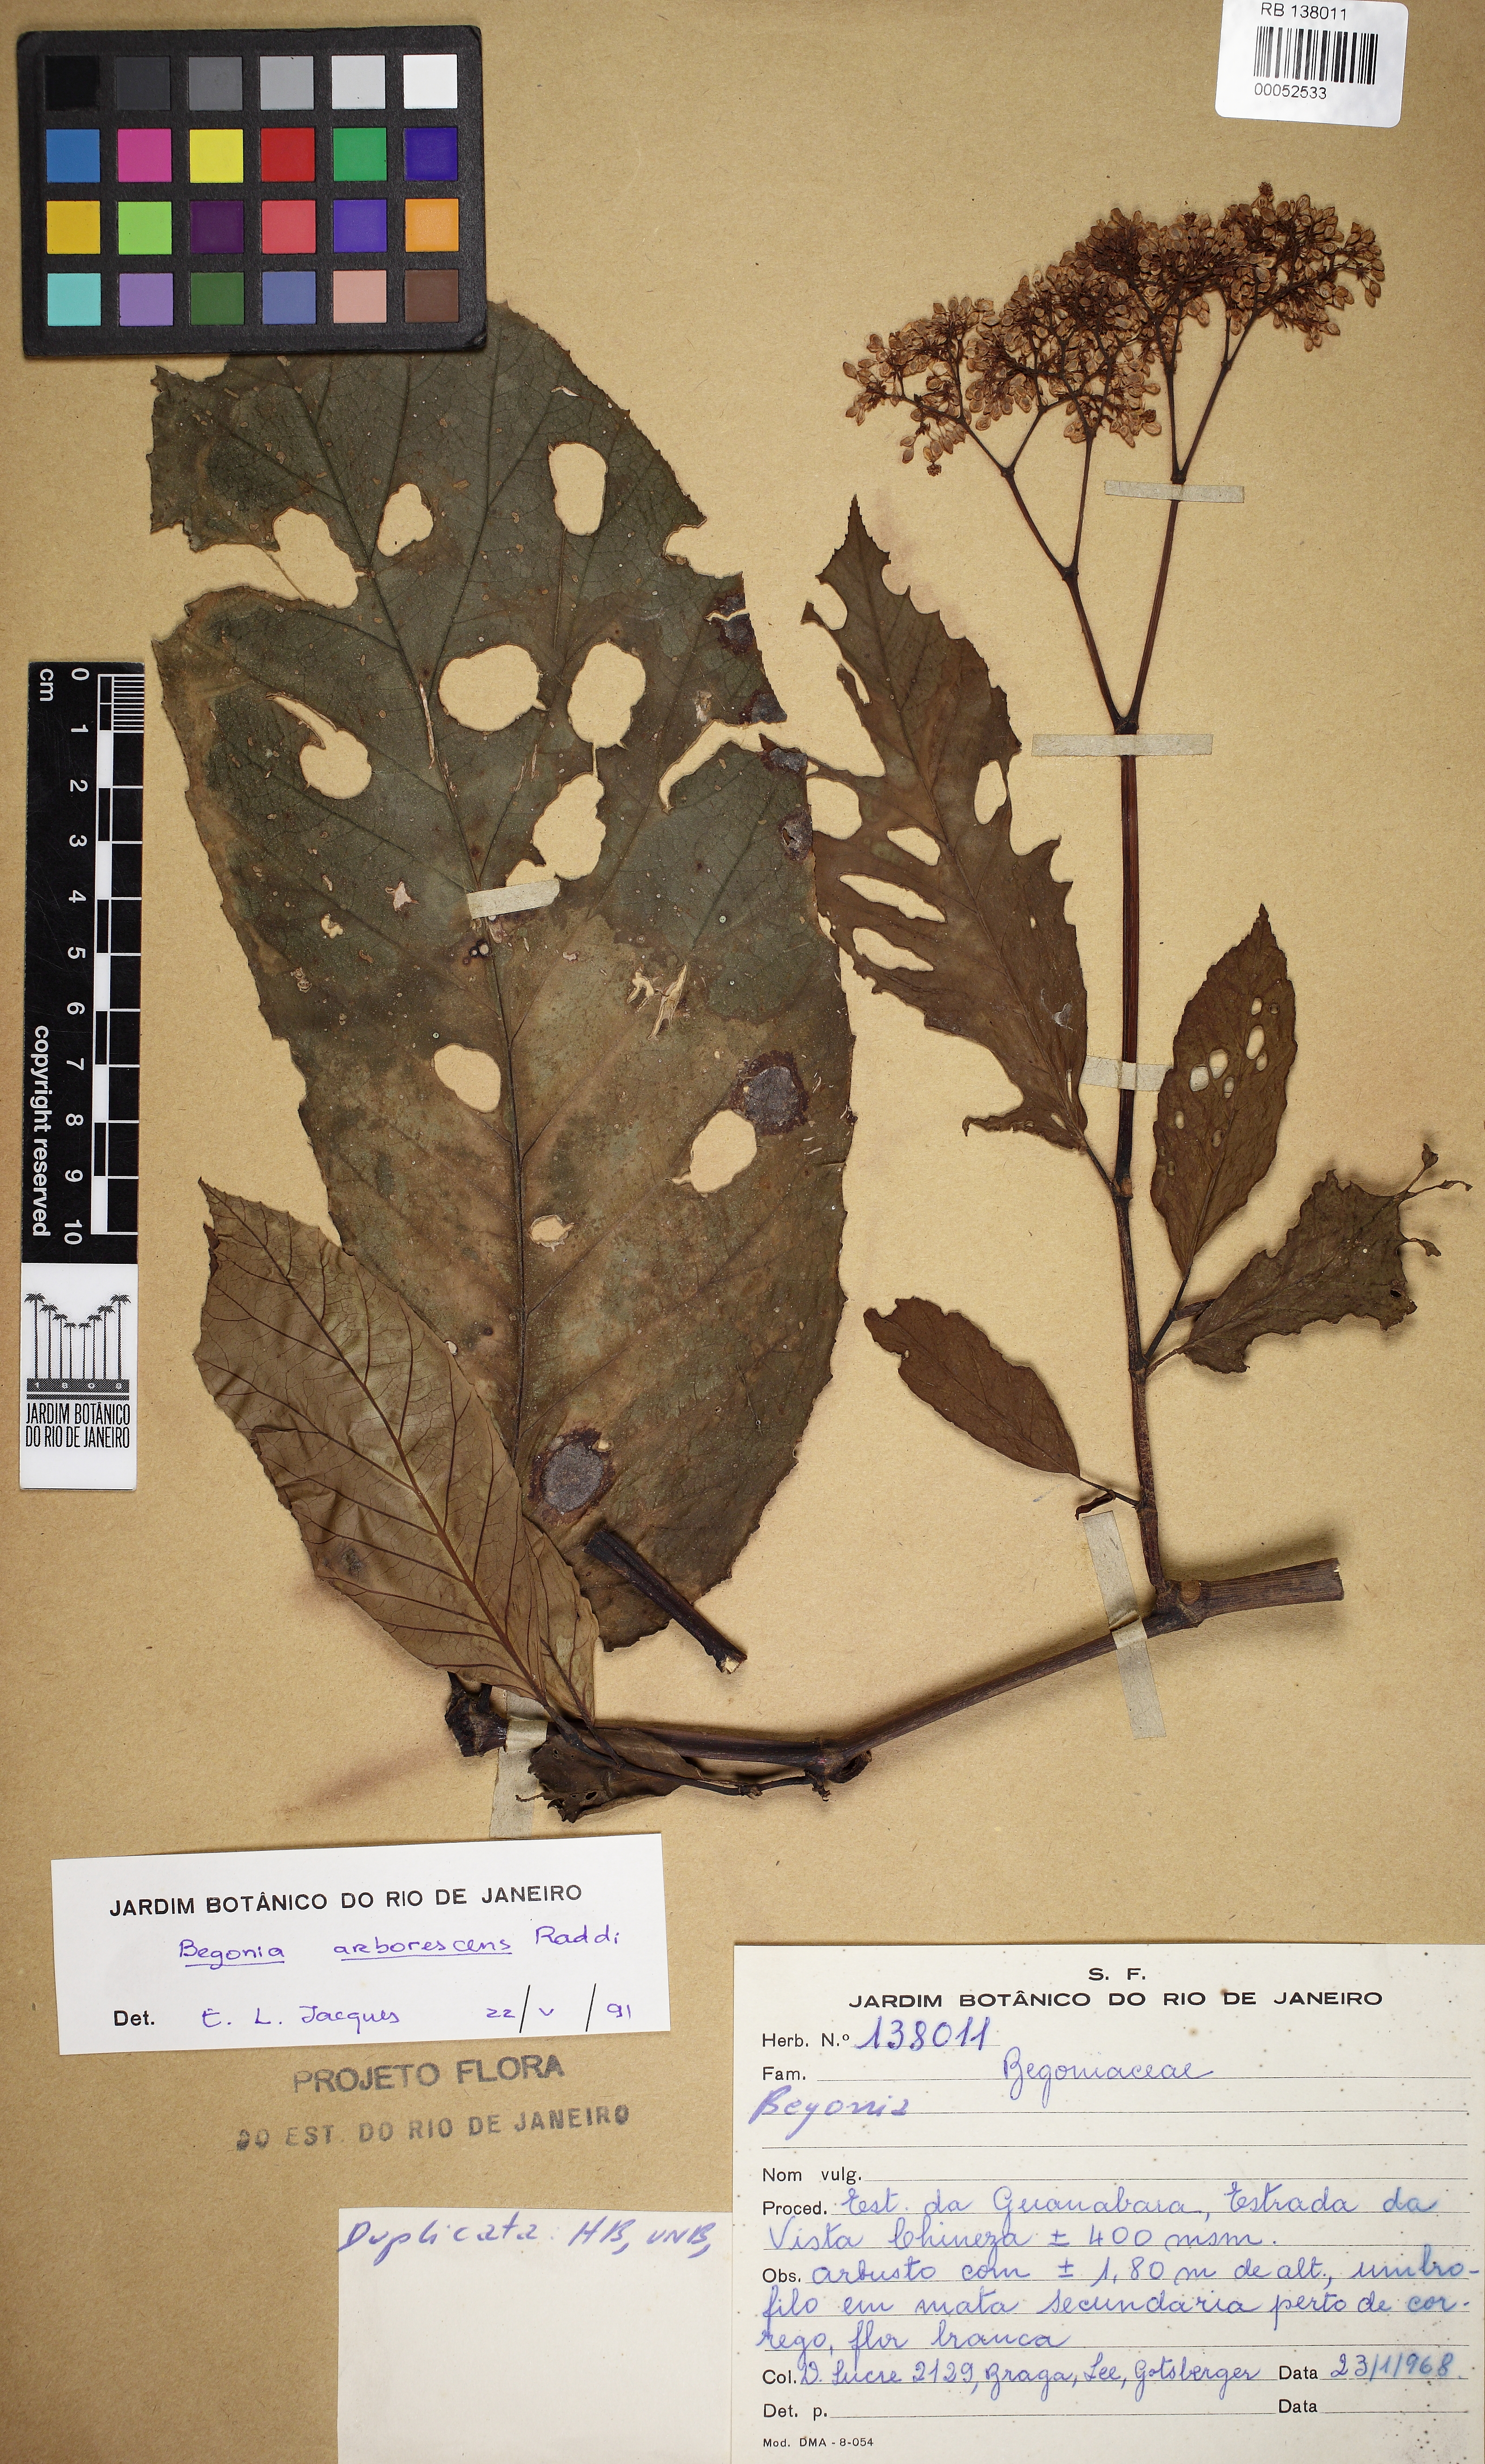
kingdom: Plantae
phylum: Tracheophyta
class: Magnoliopsida
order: Cucurbitales
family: Begoniaceae
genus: Begonia
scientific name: Begonia arborescens
